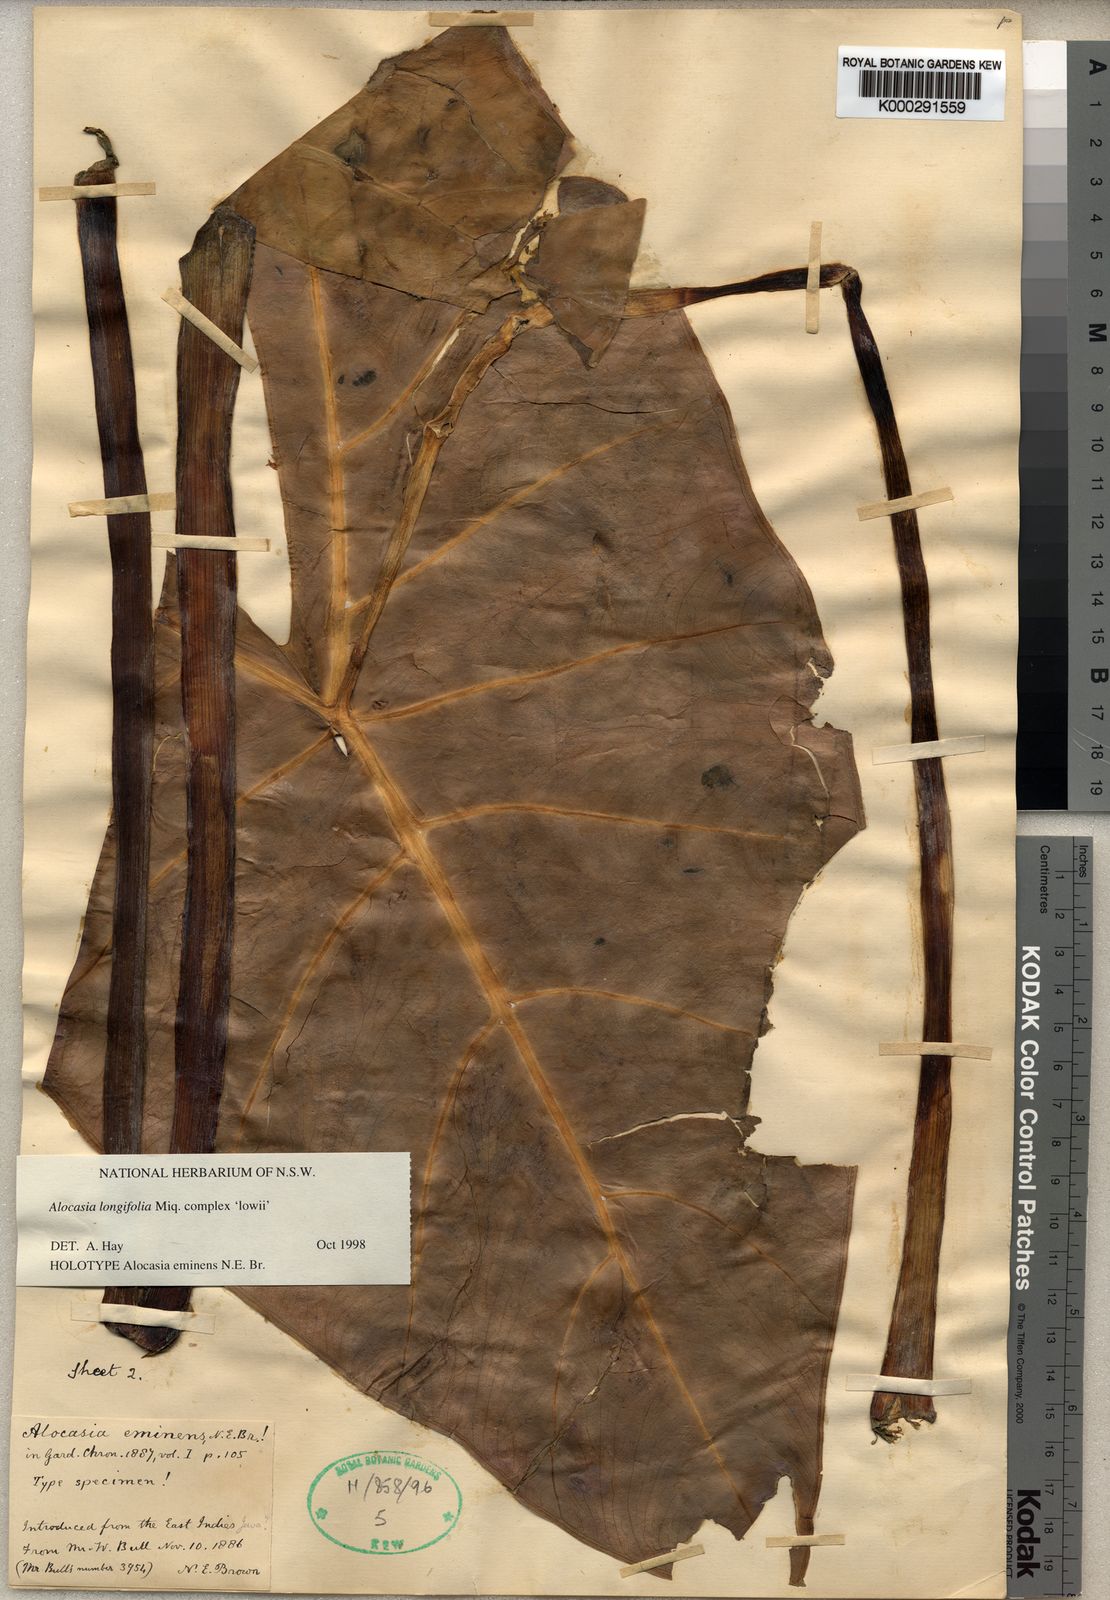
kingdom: Plantae
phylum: Tracheophyta
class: Liliopsida
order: Alismatales
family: Araceae
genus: Alocasia
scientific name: Alocasia longiloba
